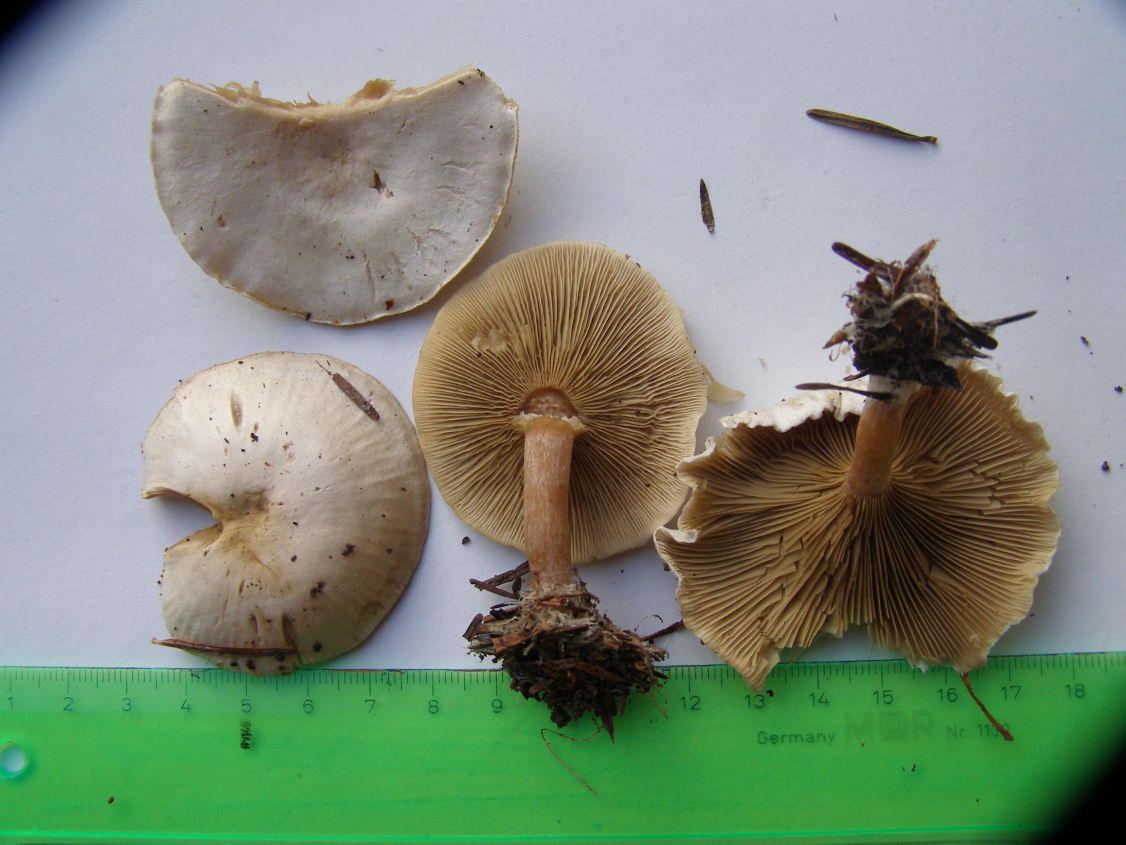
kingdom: Fungi
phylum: Basidiomycota
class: Agaricomycetes
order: Agaricales
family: Tricholomataceae
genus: Ripartites
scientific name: Ripartites tricholoma
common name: almindelig skæghat
